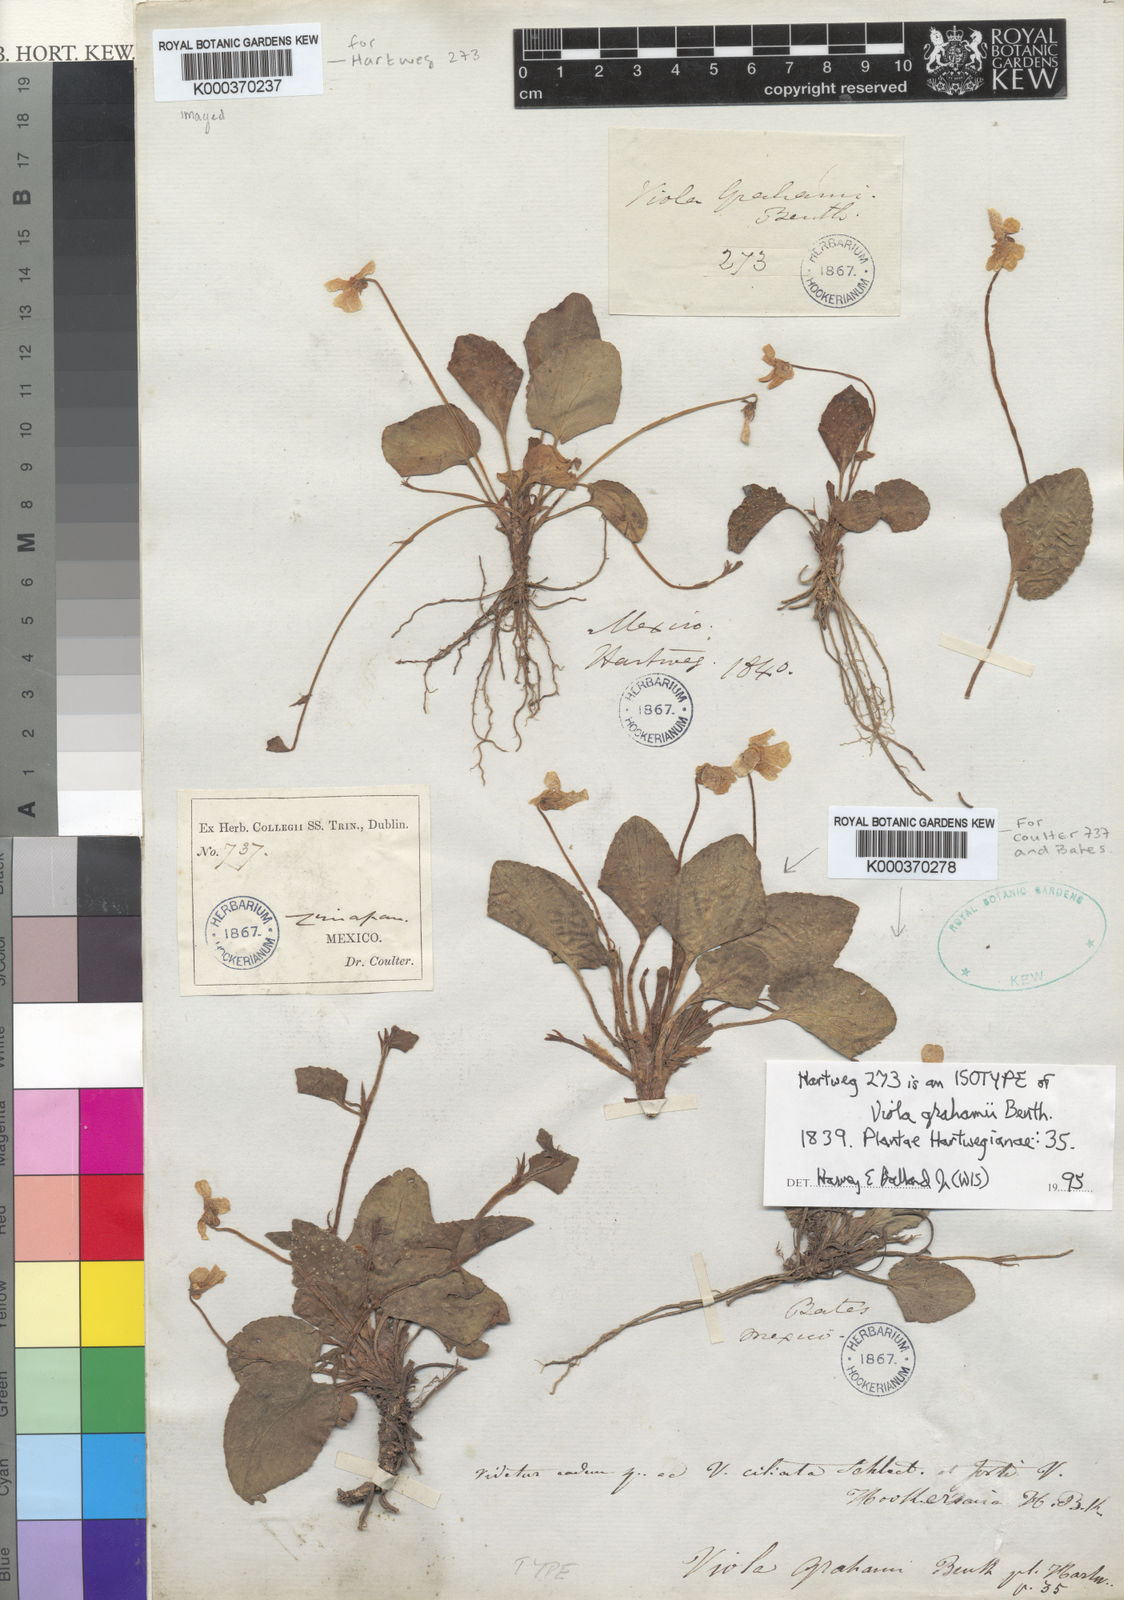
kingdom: Plantae
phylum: Tracheophyta
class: Magnoliopsida
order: Malpighiales
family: Violaceae
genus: Viola
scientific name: Viola grahamii
